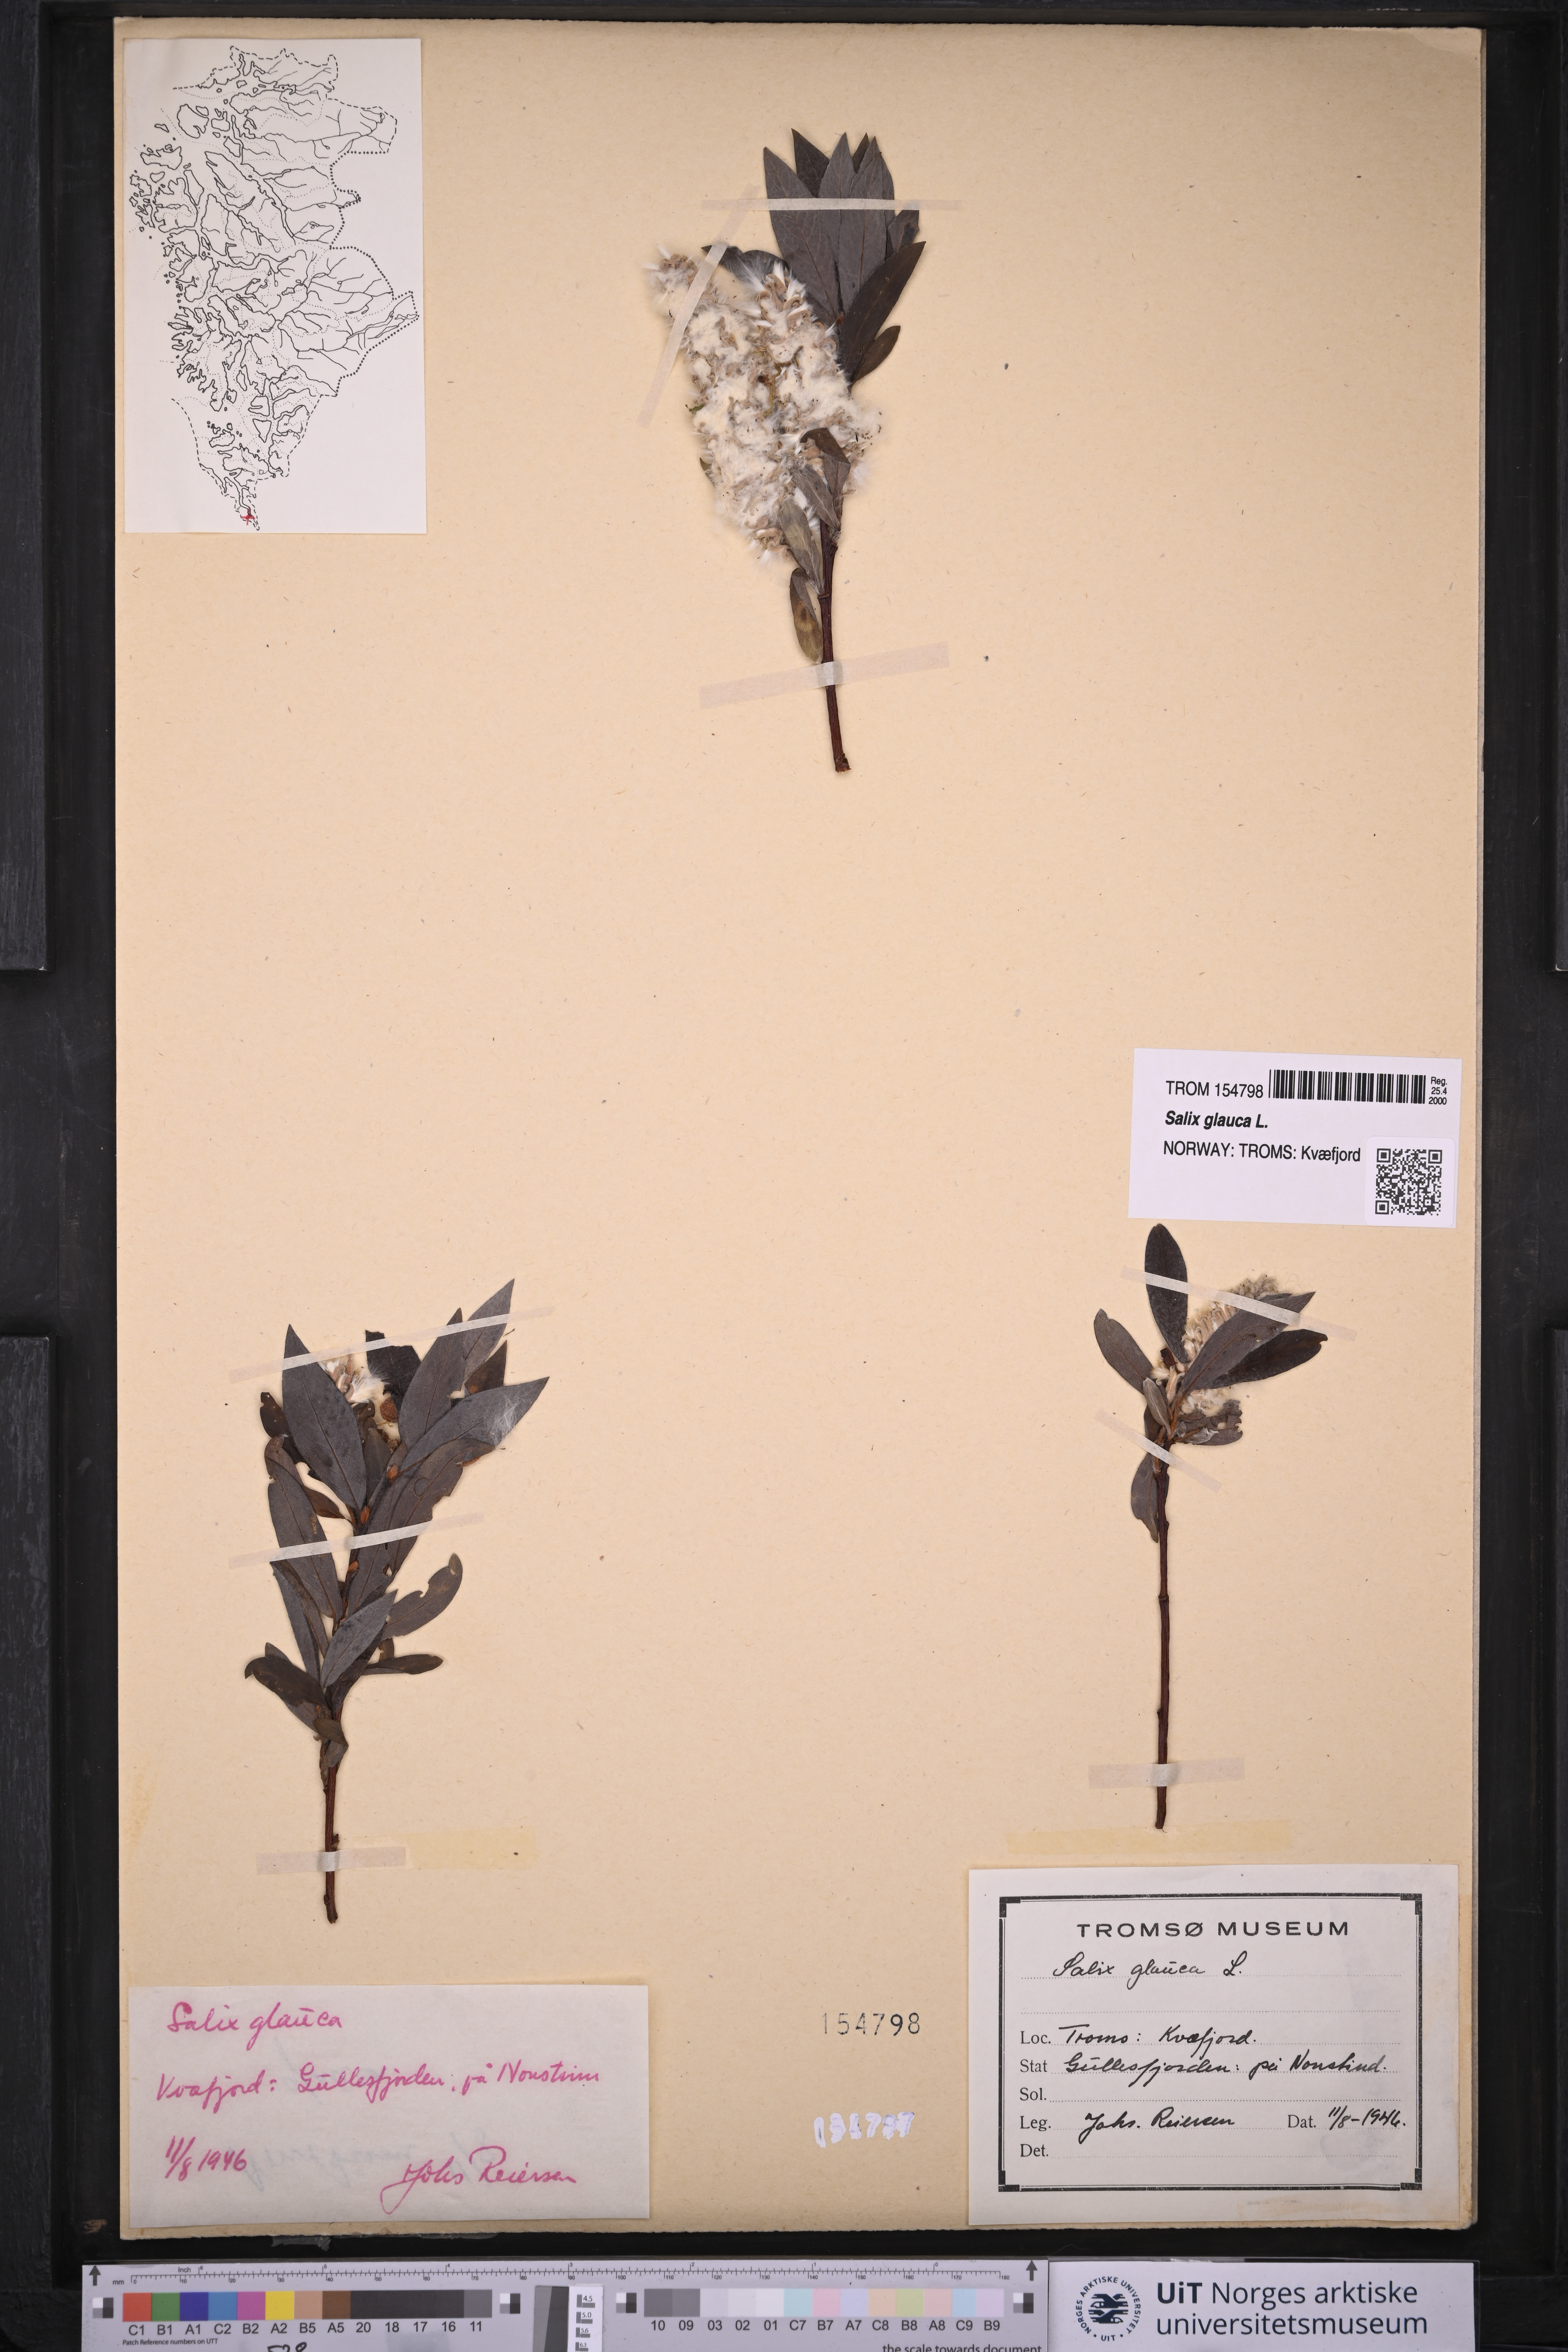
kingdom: Plantae
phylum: Tracheophyta
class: Magnoliopsida
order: Malpighiales
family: Salicaceae
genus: Salix
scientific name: Salix glauca
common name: Glaucous willow
